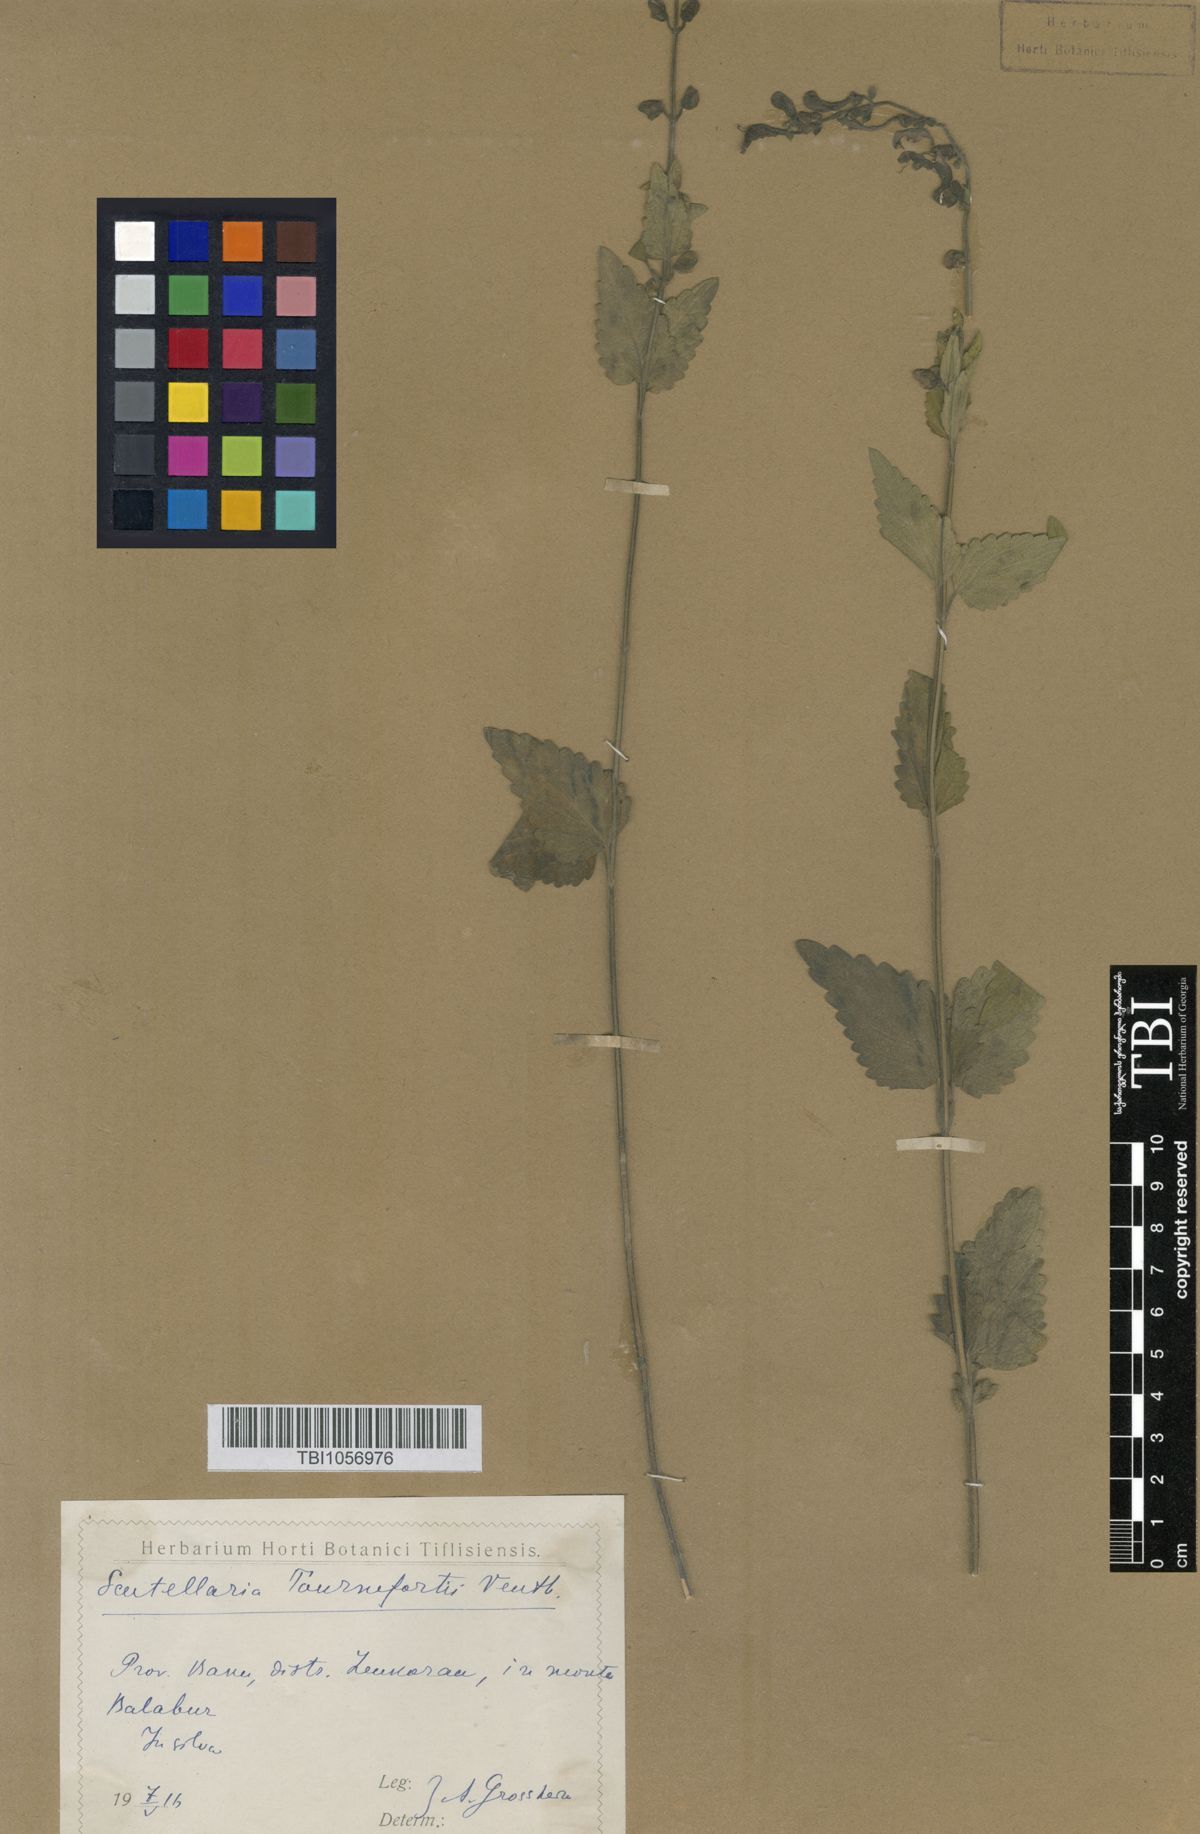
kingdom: Plantae
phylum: Tracheophyta
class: Magnoliopsida
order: Lamiales
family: Lamiaceae
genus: Scutellaria
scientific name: Scutellaria tournefortii
